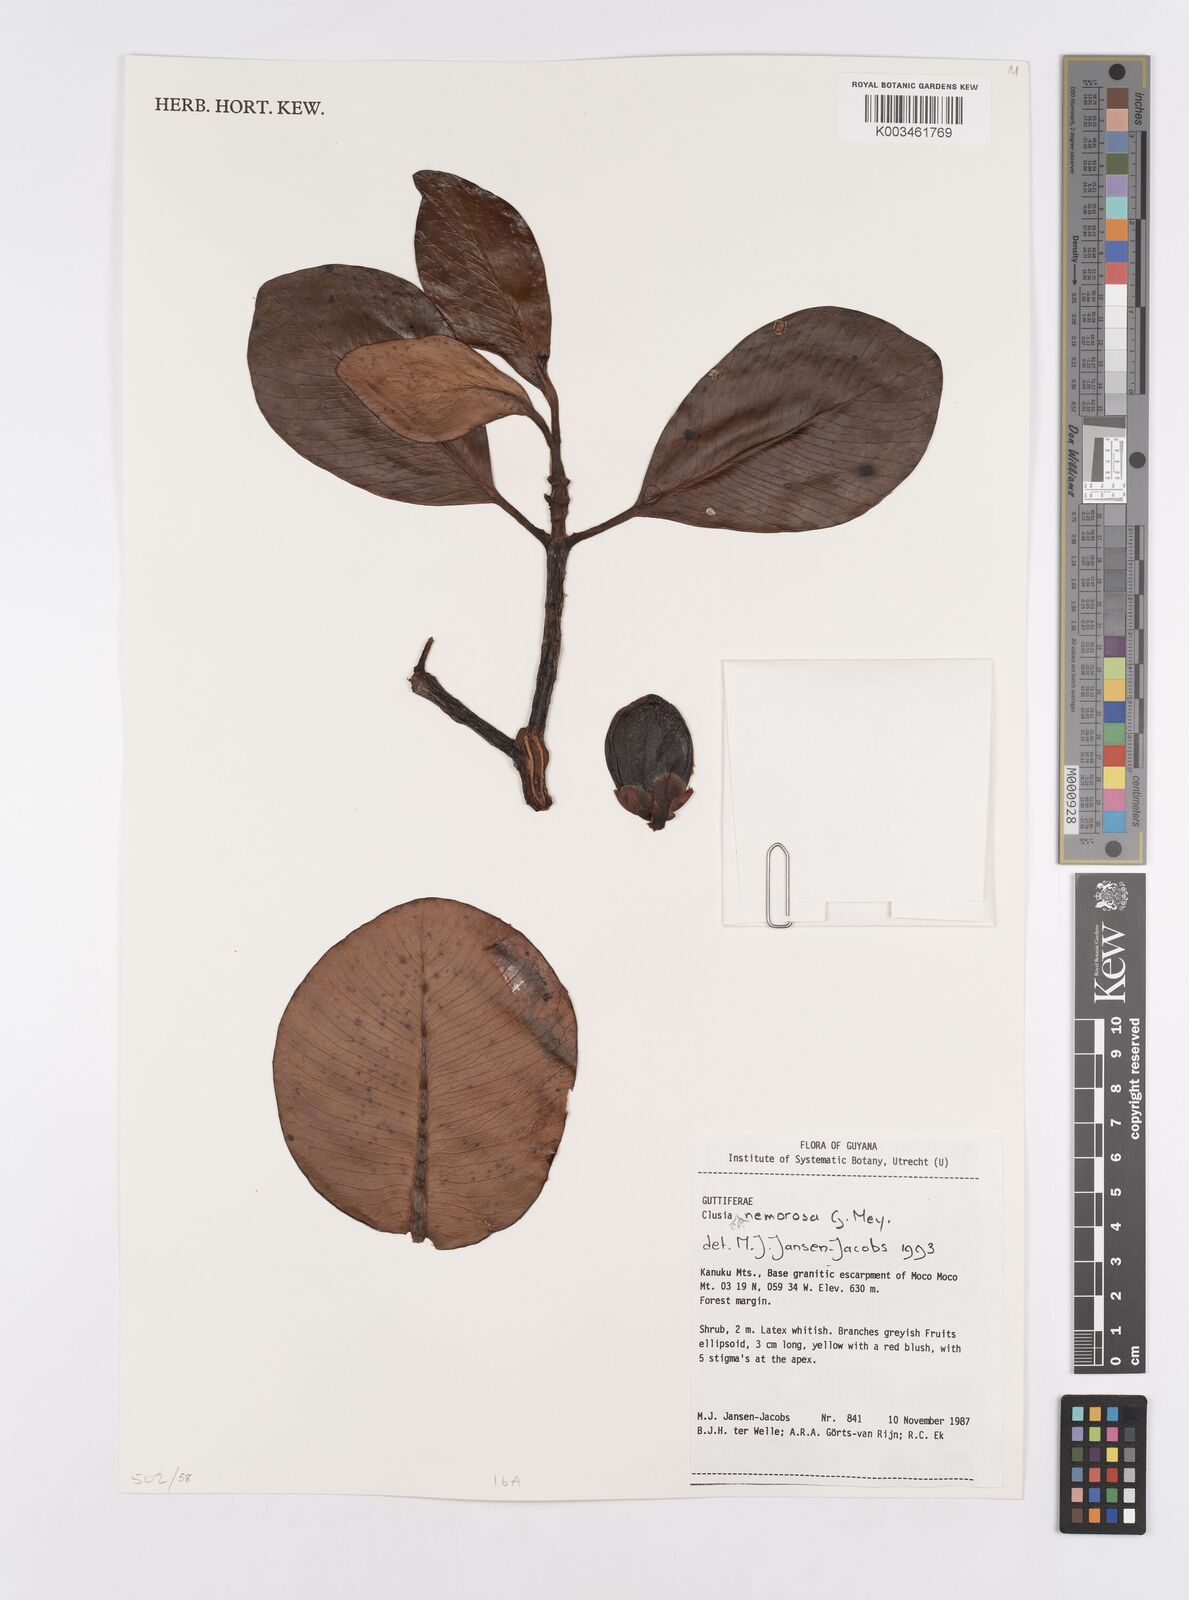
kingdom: Plantae
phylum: Tracheophyta
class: Magnoliopsida
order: Malpighiales
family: Clusiaceae
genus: Clusia
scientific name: Clusia nemorosa
